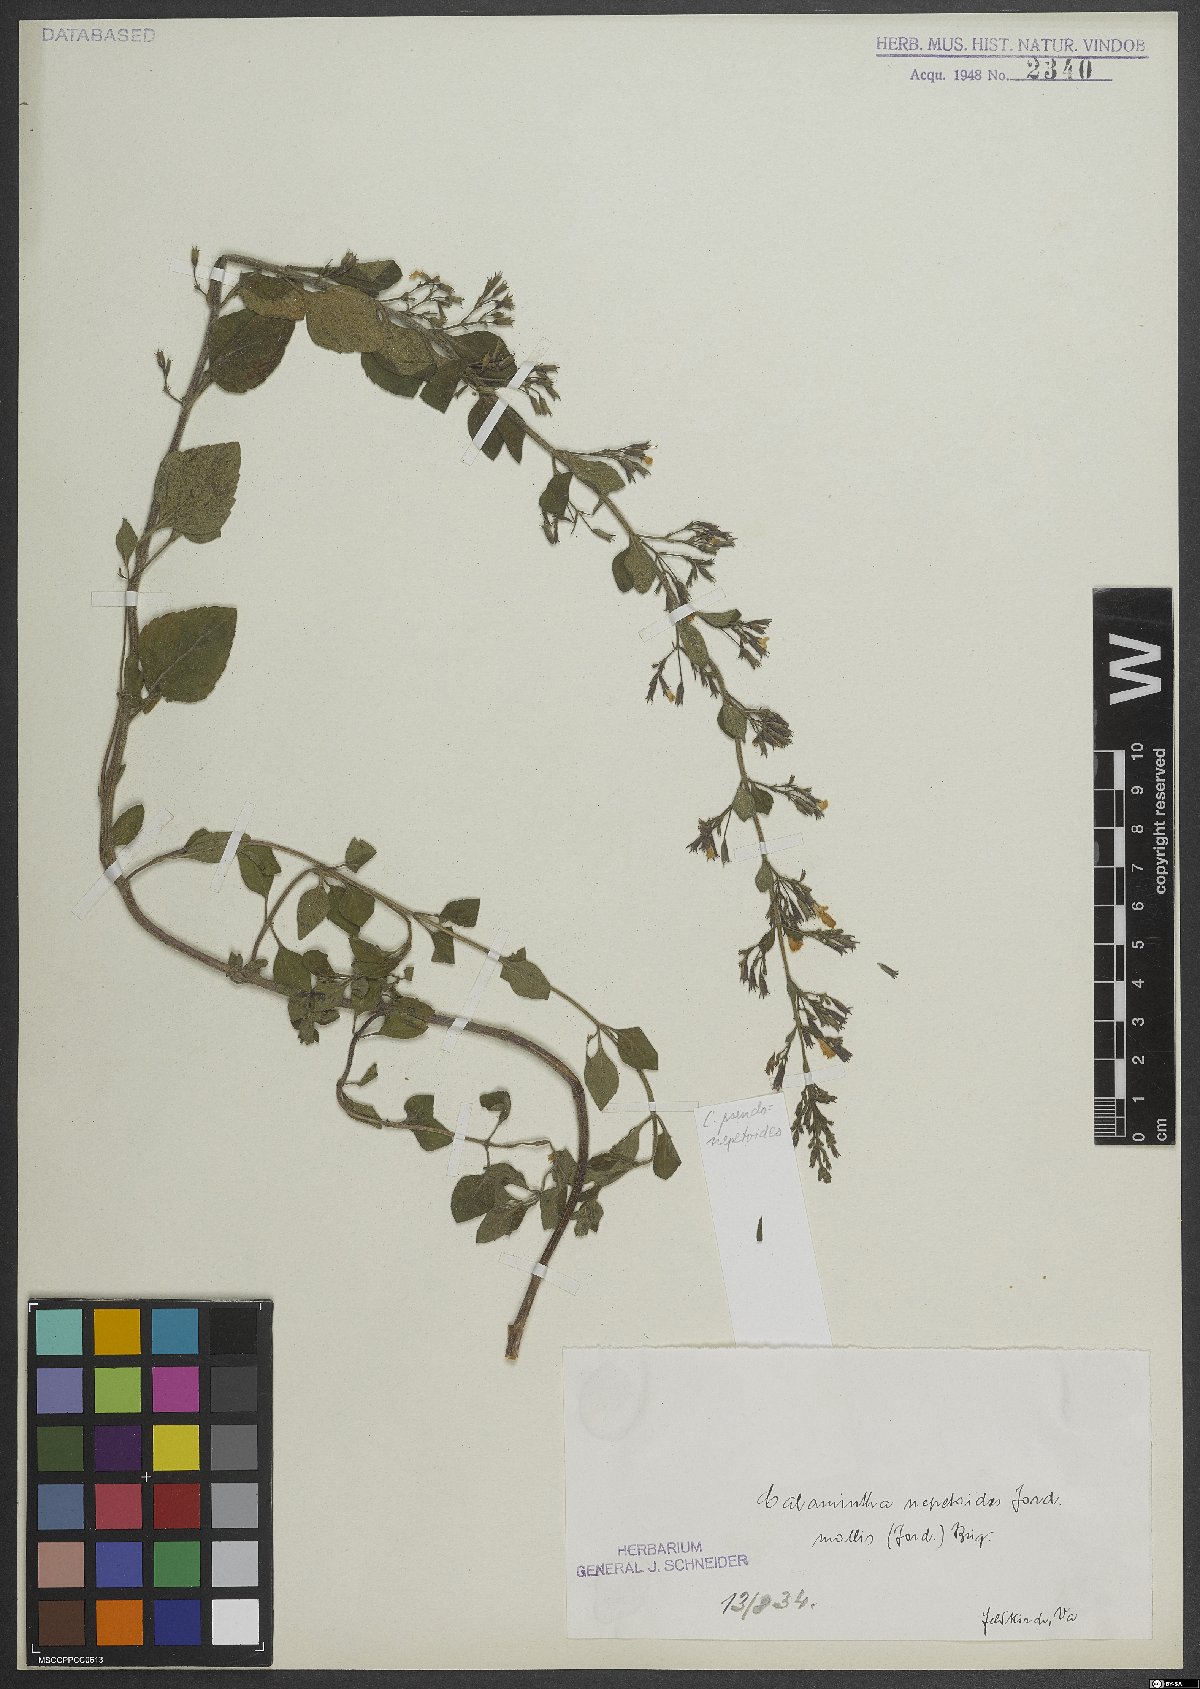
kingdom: Plantae
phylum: Tracheophyta
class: Magnoliopsida
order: Lamiales
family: Lamiaceae
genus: Clinopodium
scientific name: Clinopodium nepeta
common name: Lesser calamint
